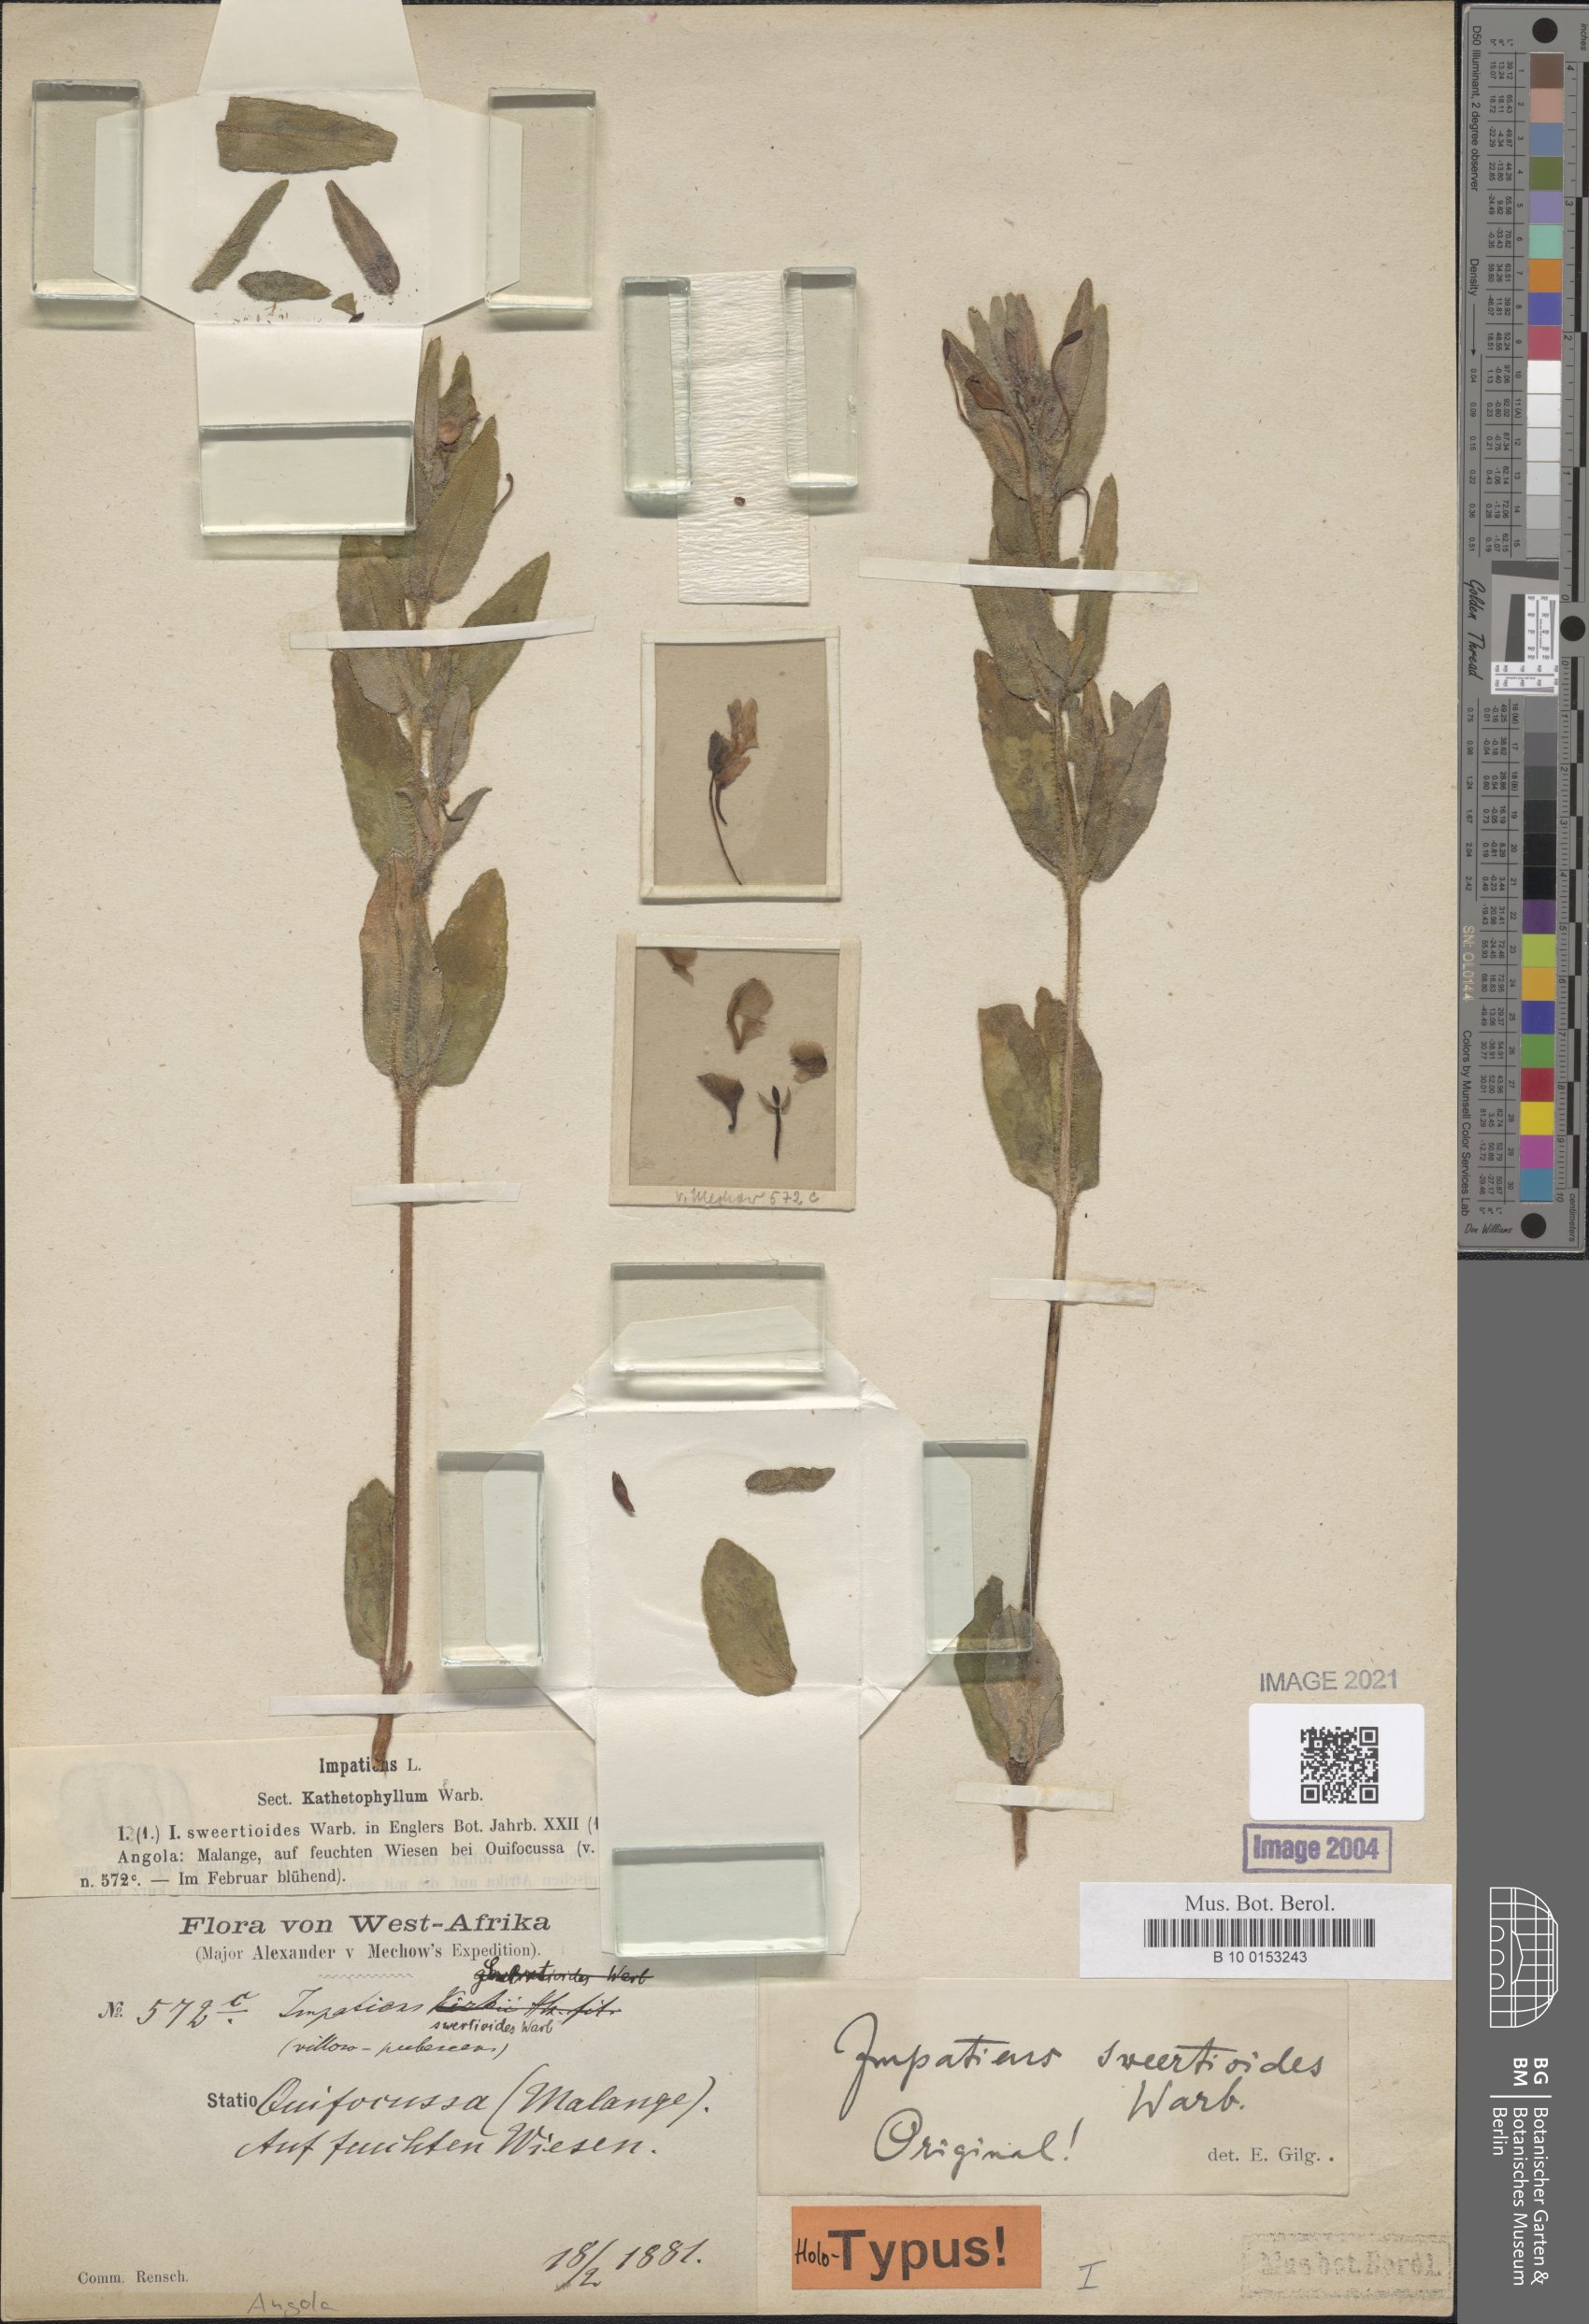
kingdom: Plantae
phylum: Tracheophyta
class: Magnoliopsida
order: Ericales
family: Balsaminaceae
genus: Impatiens
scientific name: Impatiens assurgens
